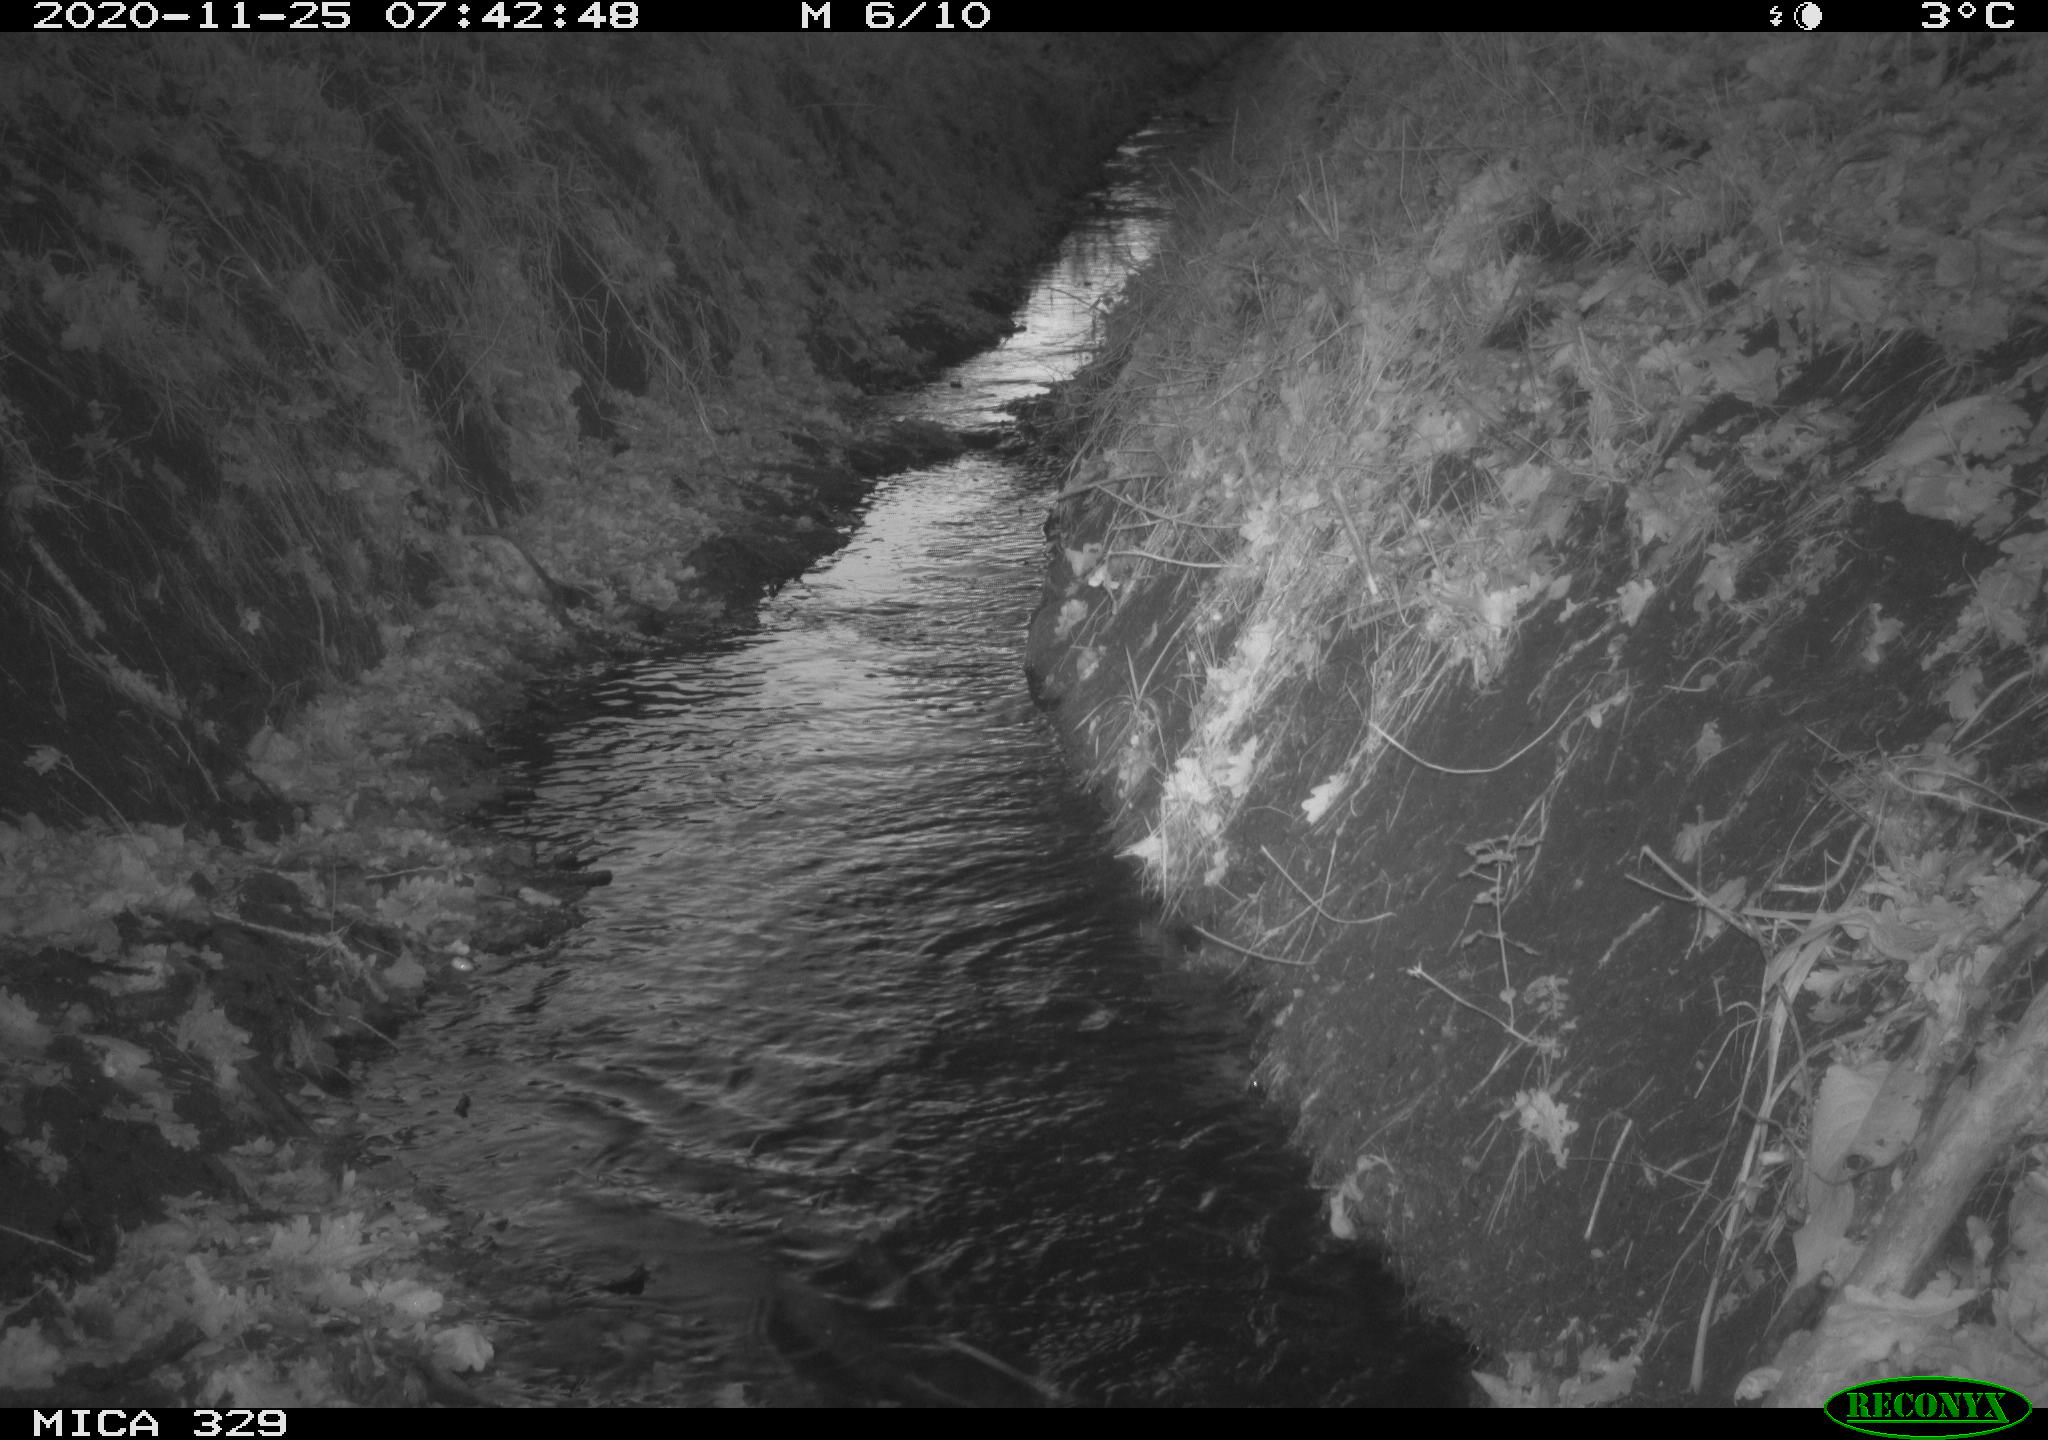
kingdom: Animalia
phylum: Chordata
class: Mammalia
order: Rodentia
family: Cricetidae
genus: Ondatra
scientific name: Ondatra zibethicus
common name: Muskrat
